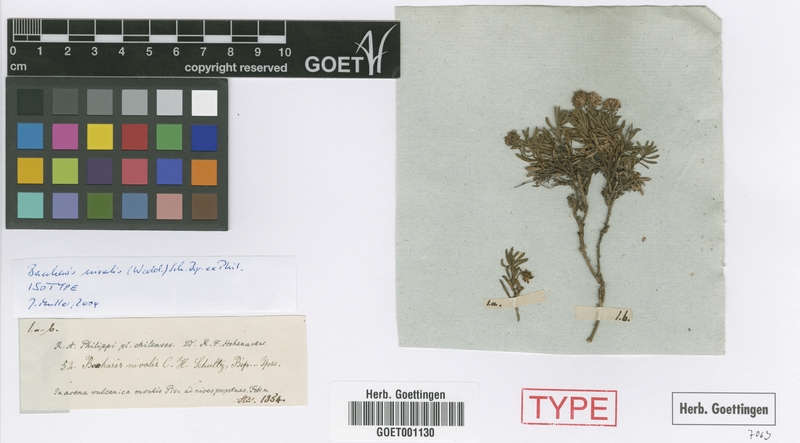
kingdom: Plantae
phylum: Tracheophyta
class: Magnoliopsida
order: Asterales
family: Asteraceae
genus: Baccharis
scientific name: Baccharis nivalis
